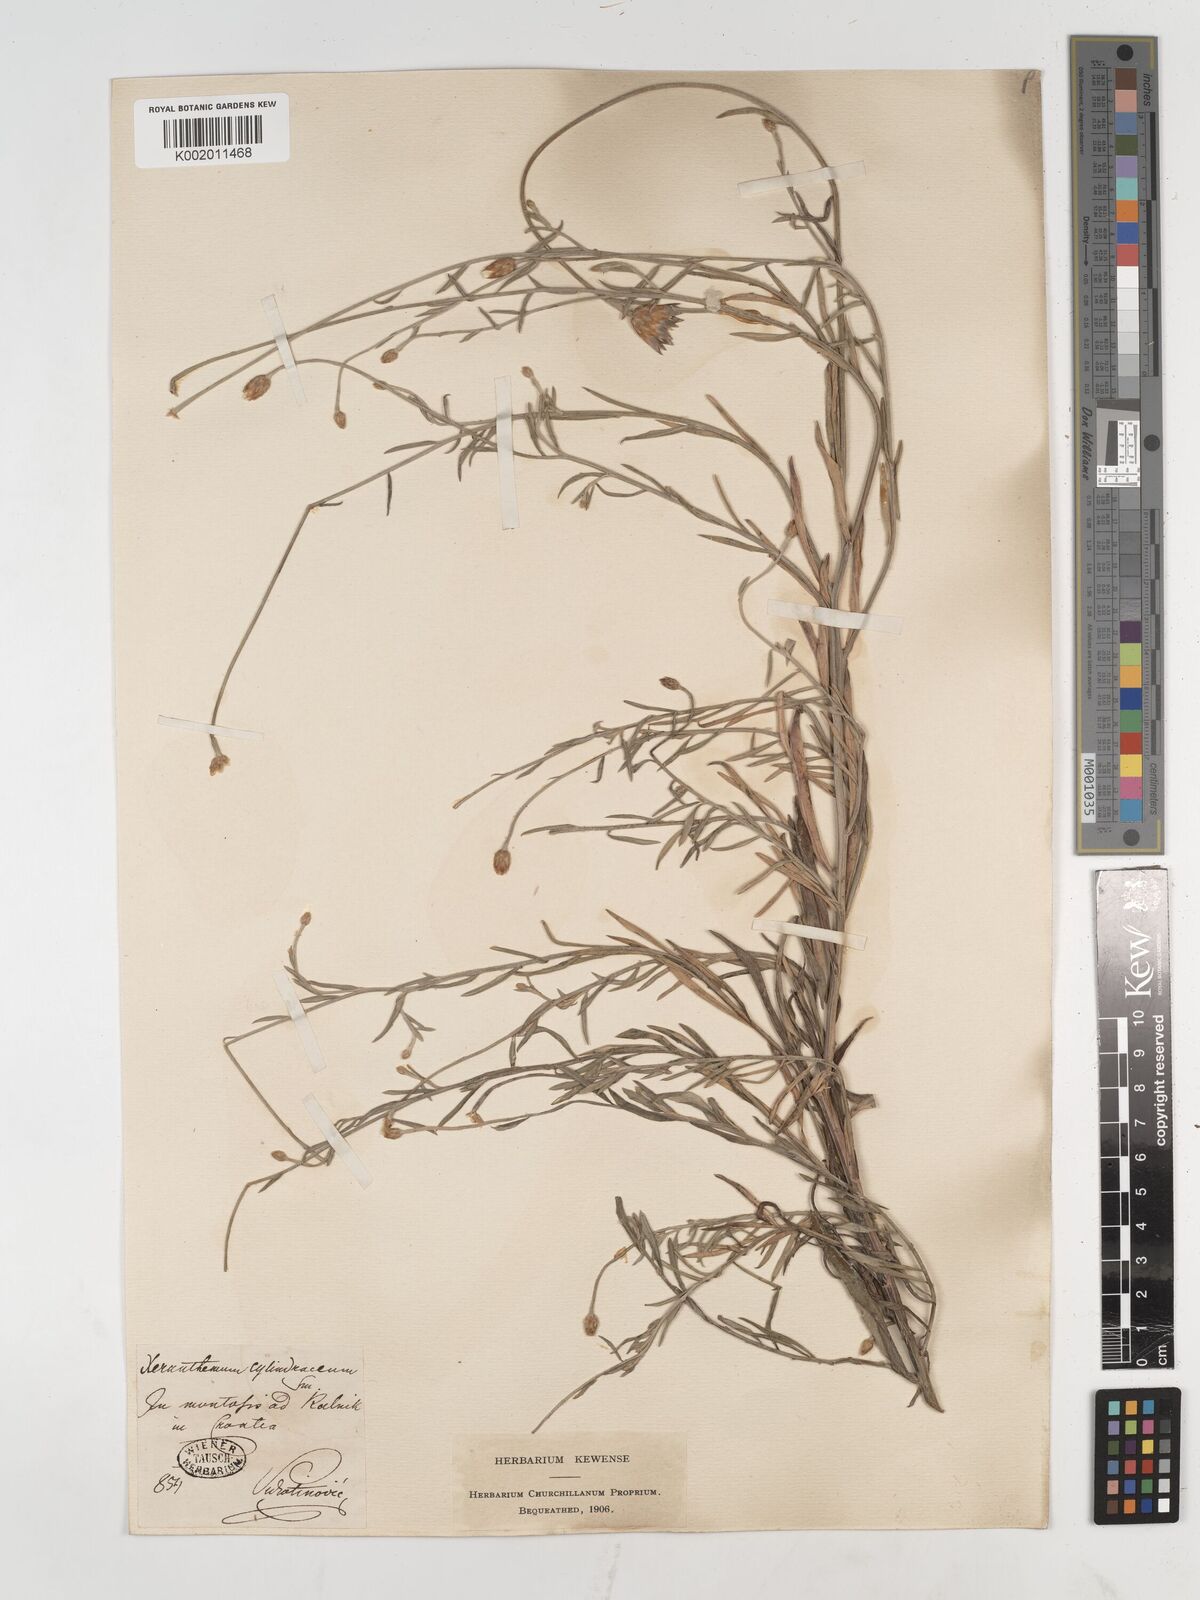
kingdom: Plantae
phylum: Tracheophyta
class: Magnoliopsida
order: Asterales
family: Asteraceae
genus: Xeranthemum
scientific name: Xeranthemum cylindraceum
